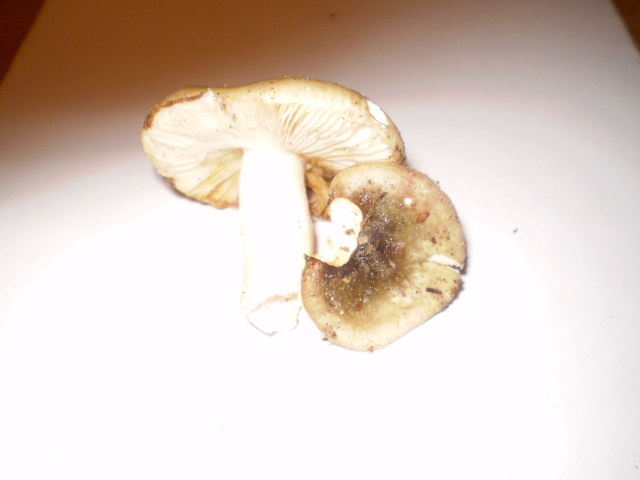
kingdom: Fungi
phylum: Basidiomycota
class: Agaricomycetes
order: Russulales
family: Russulaceae
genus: Russula
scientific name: Russula versicolor
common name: foranderlig skørhat
